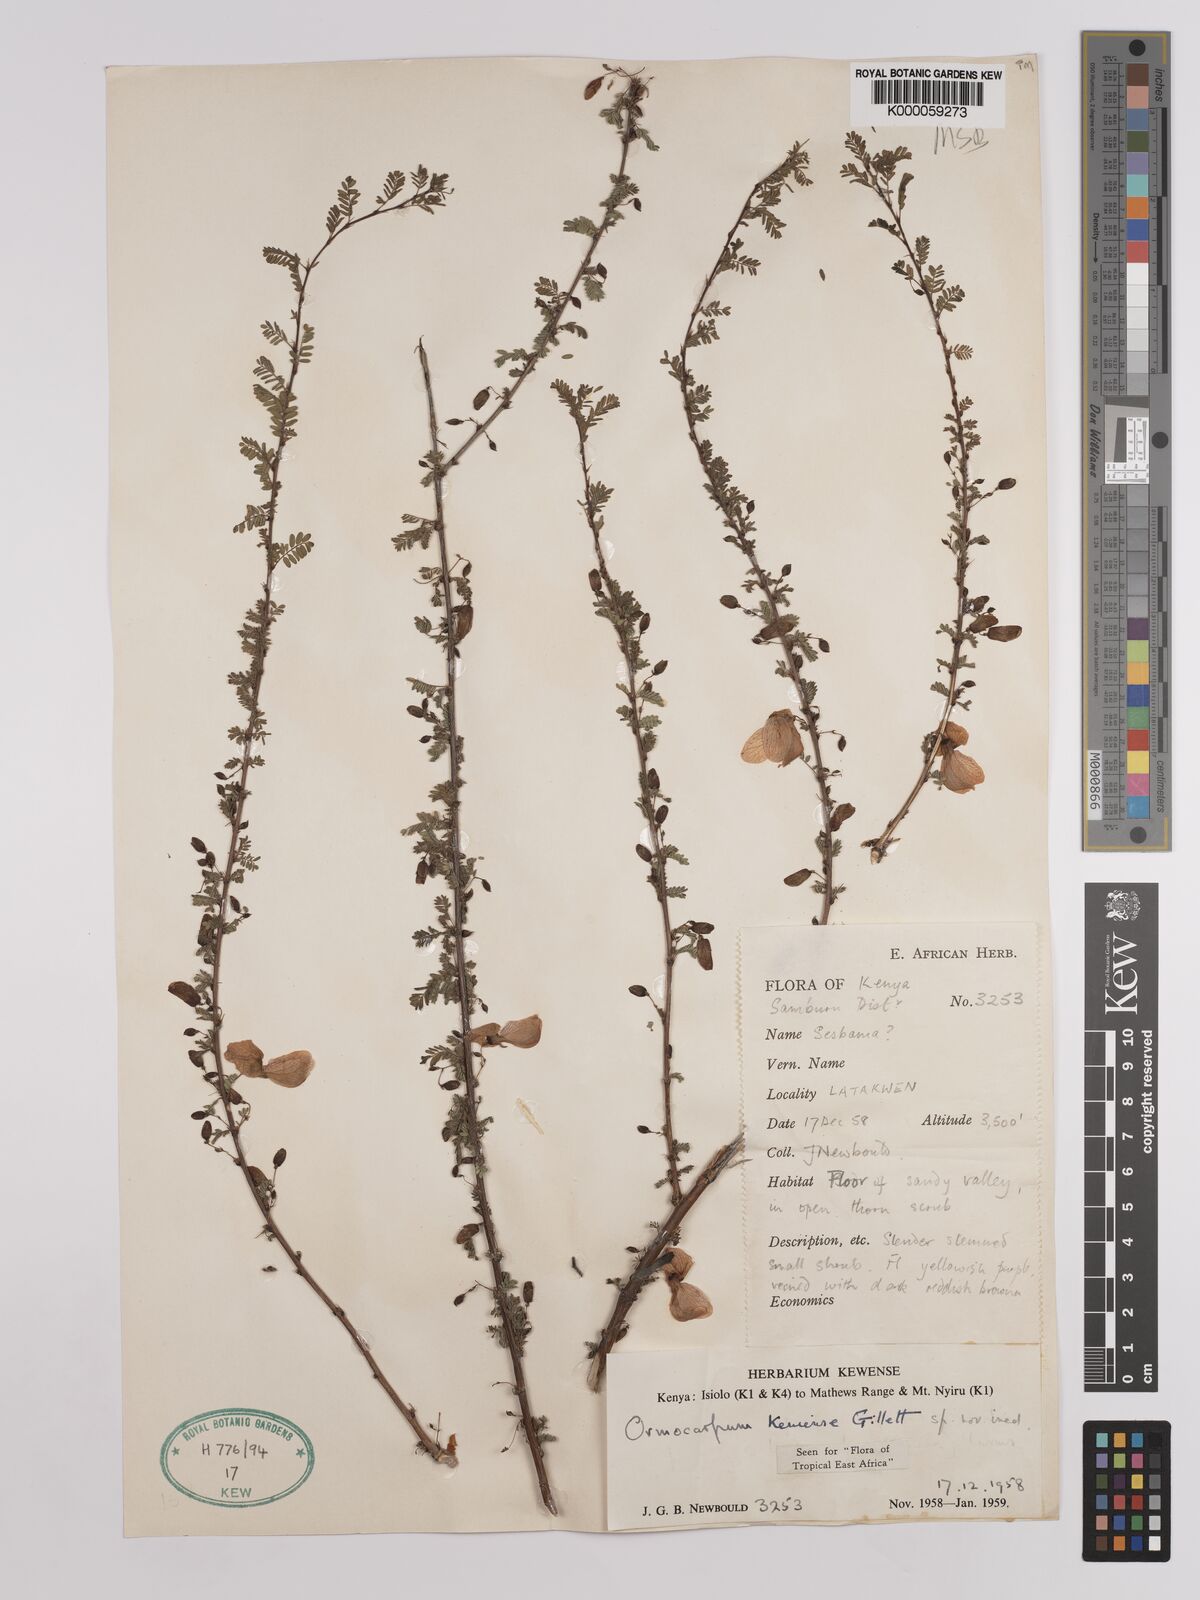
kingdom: Plantae
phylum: Tracheophyta
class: Magnoliopsida
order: Fabales
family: Fabaceae
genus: Ormocarpum
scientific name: Ormocarpum keniense
